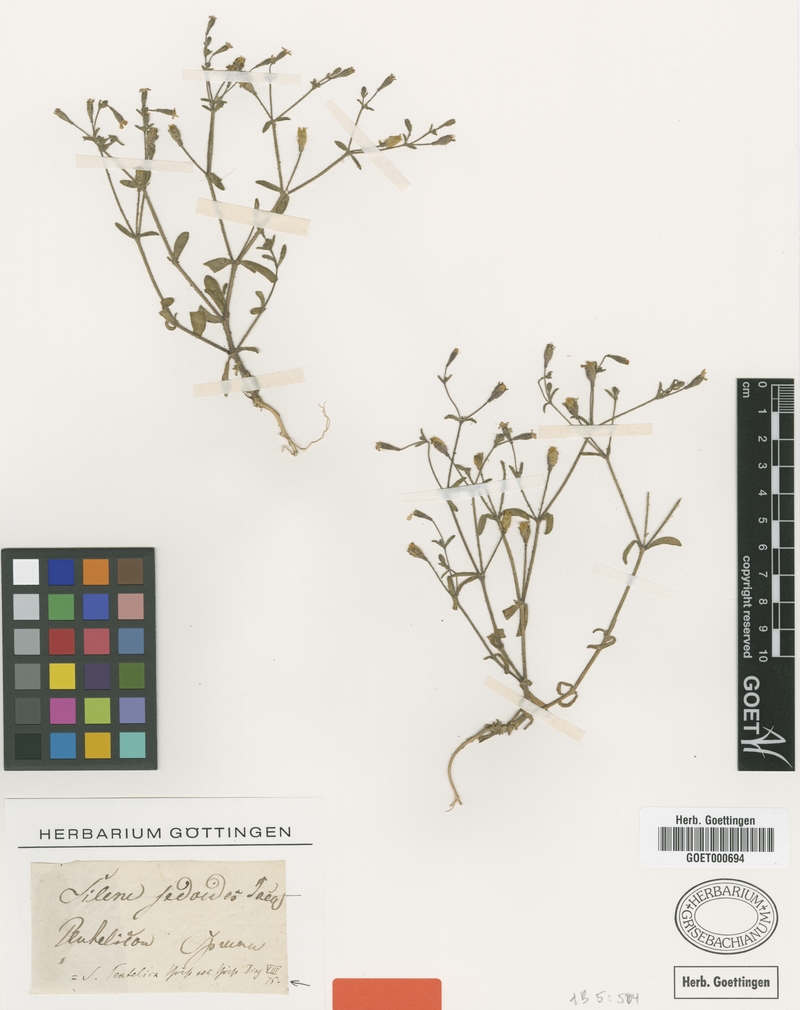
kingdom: Plantae
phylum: Tracheophyta
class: Magnoliopsida
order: Caryophyllales
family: Caryophyllaceae
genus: Silene
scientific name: Silene pentelica
